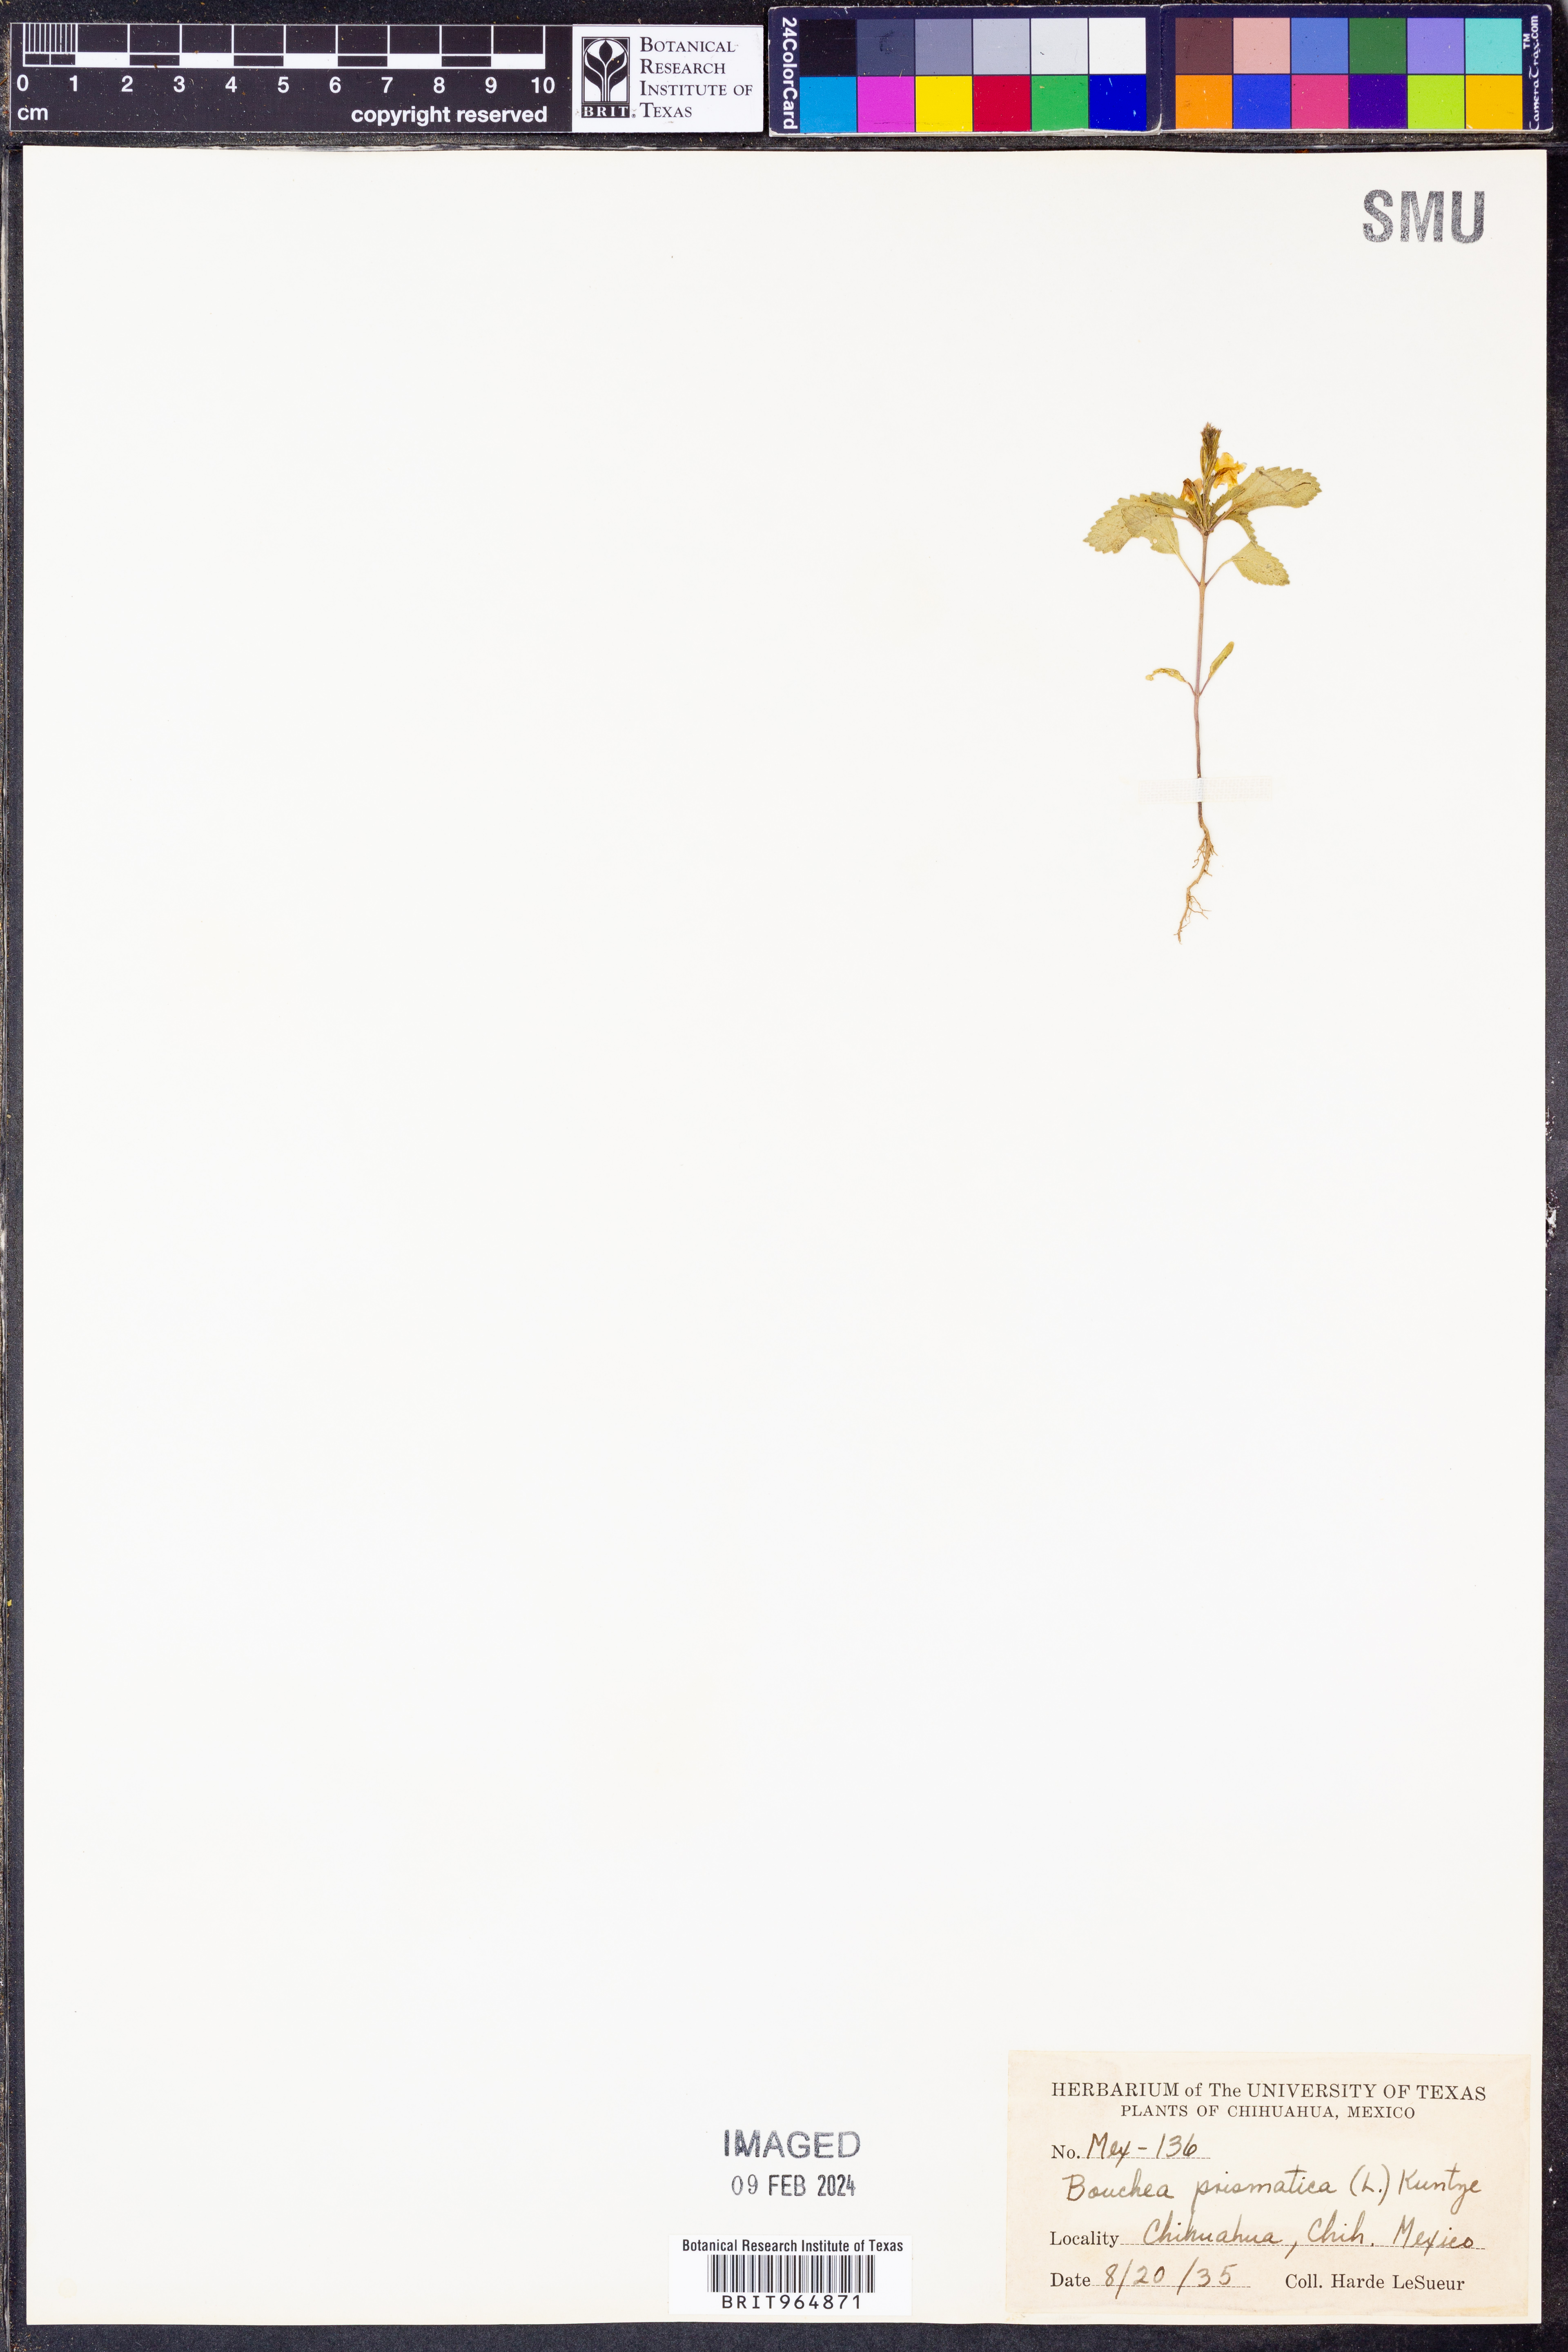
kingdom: Plantae
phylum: Tracheophyta
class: Magnoliopsida
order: Lamiales
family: Verbenaceae
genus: Bouchea
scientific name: Bouchea
